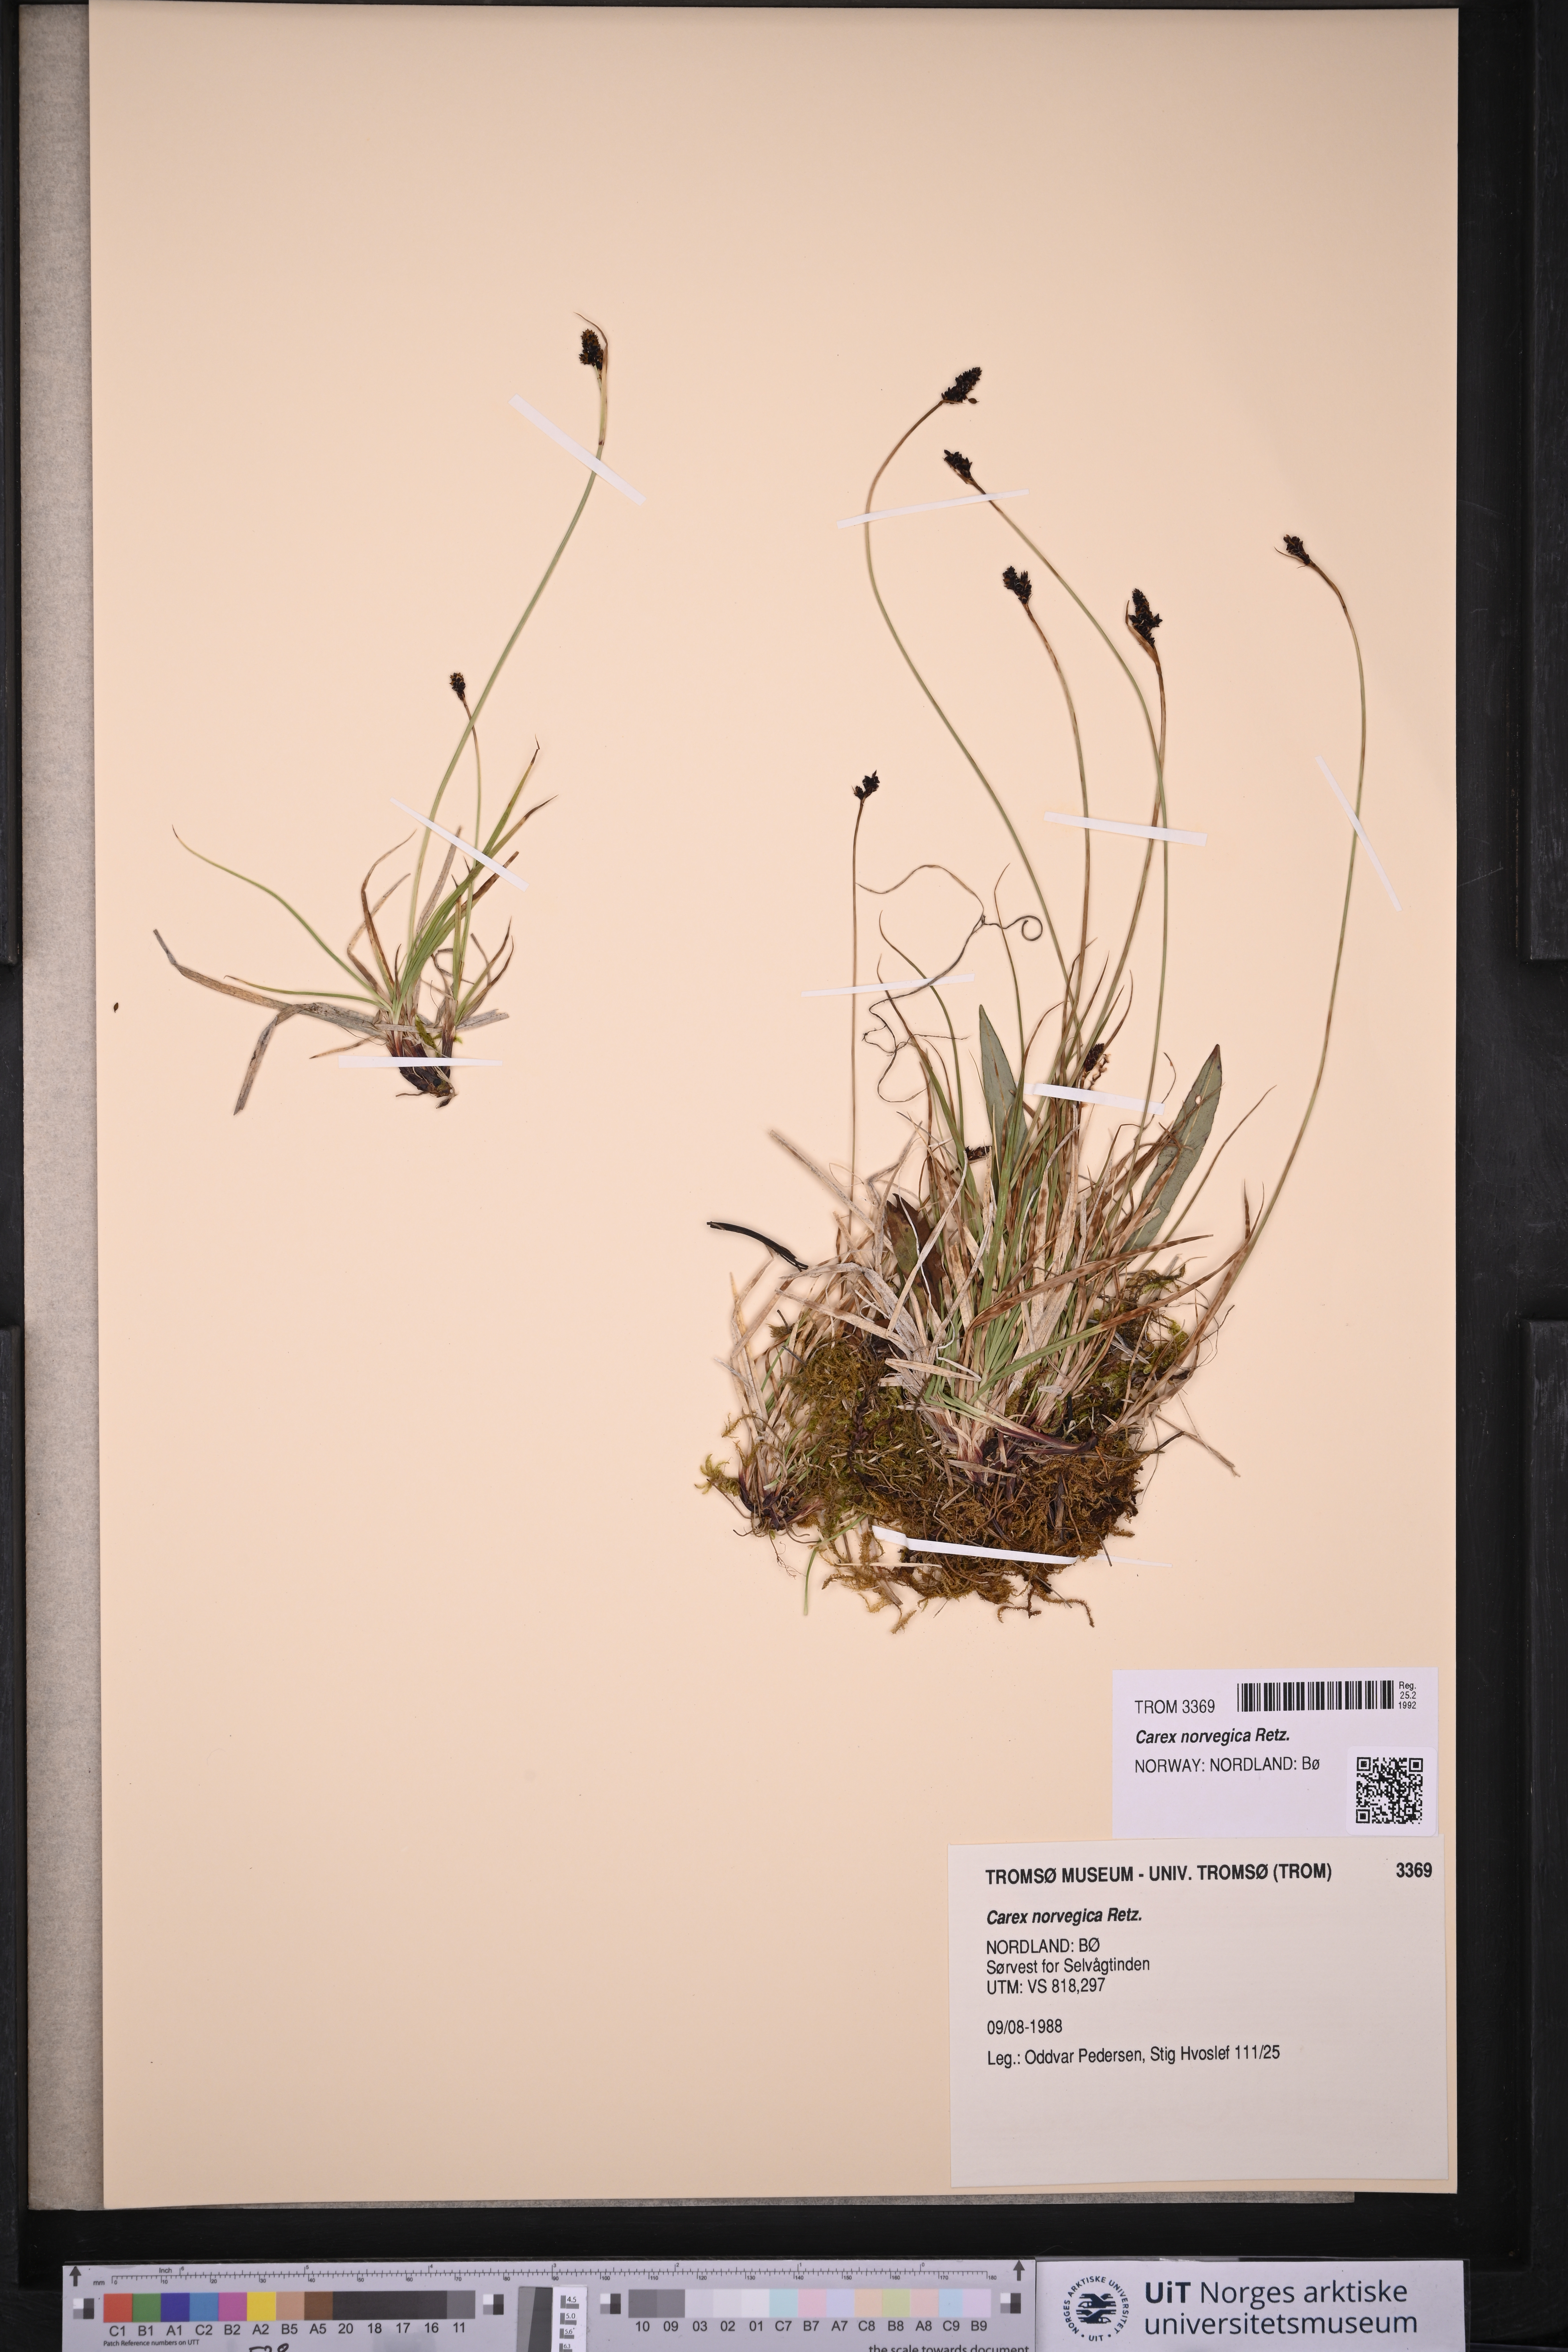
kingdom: Plantae
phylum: Tracheophyta
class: Liliopsida
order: Poales
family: Cyperaceae
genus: Carex
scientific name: Carex norvegica
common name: Close-headed alpine-sedge
